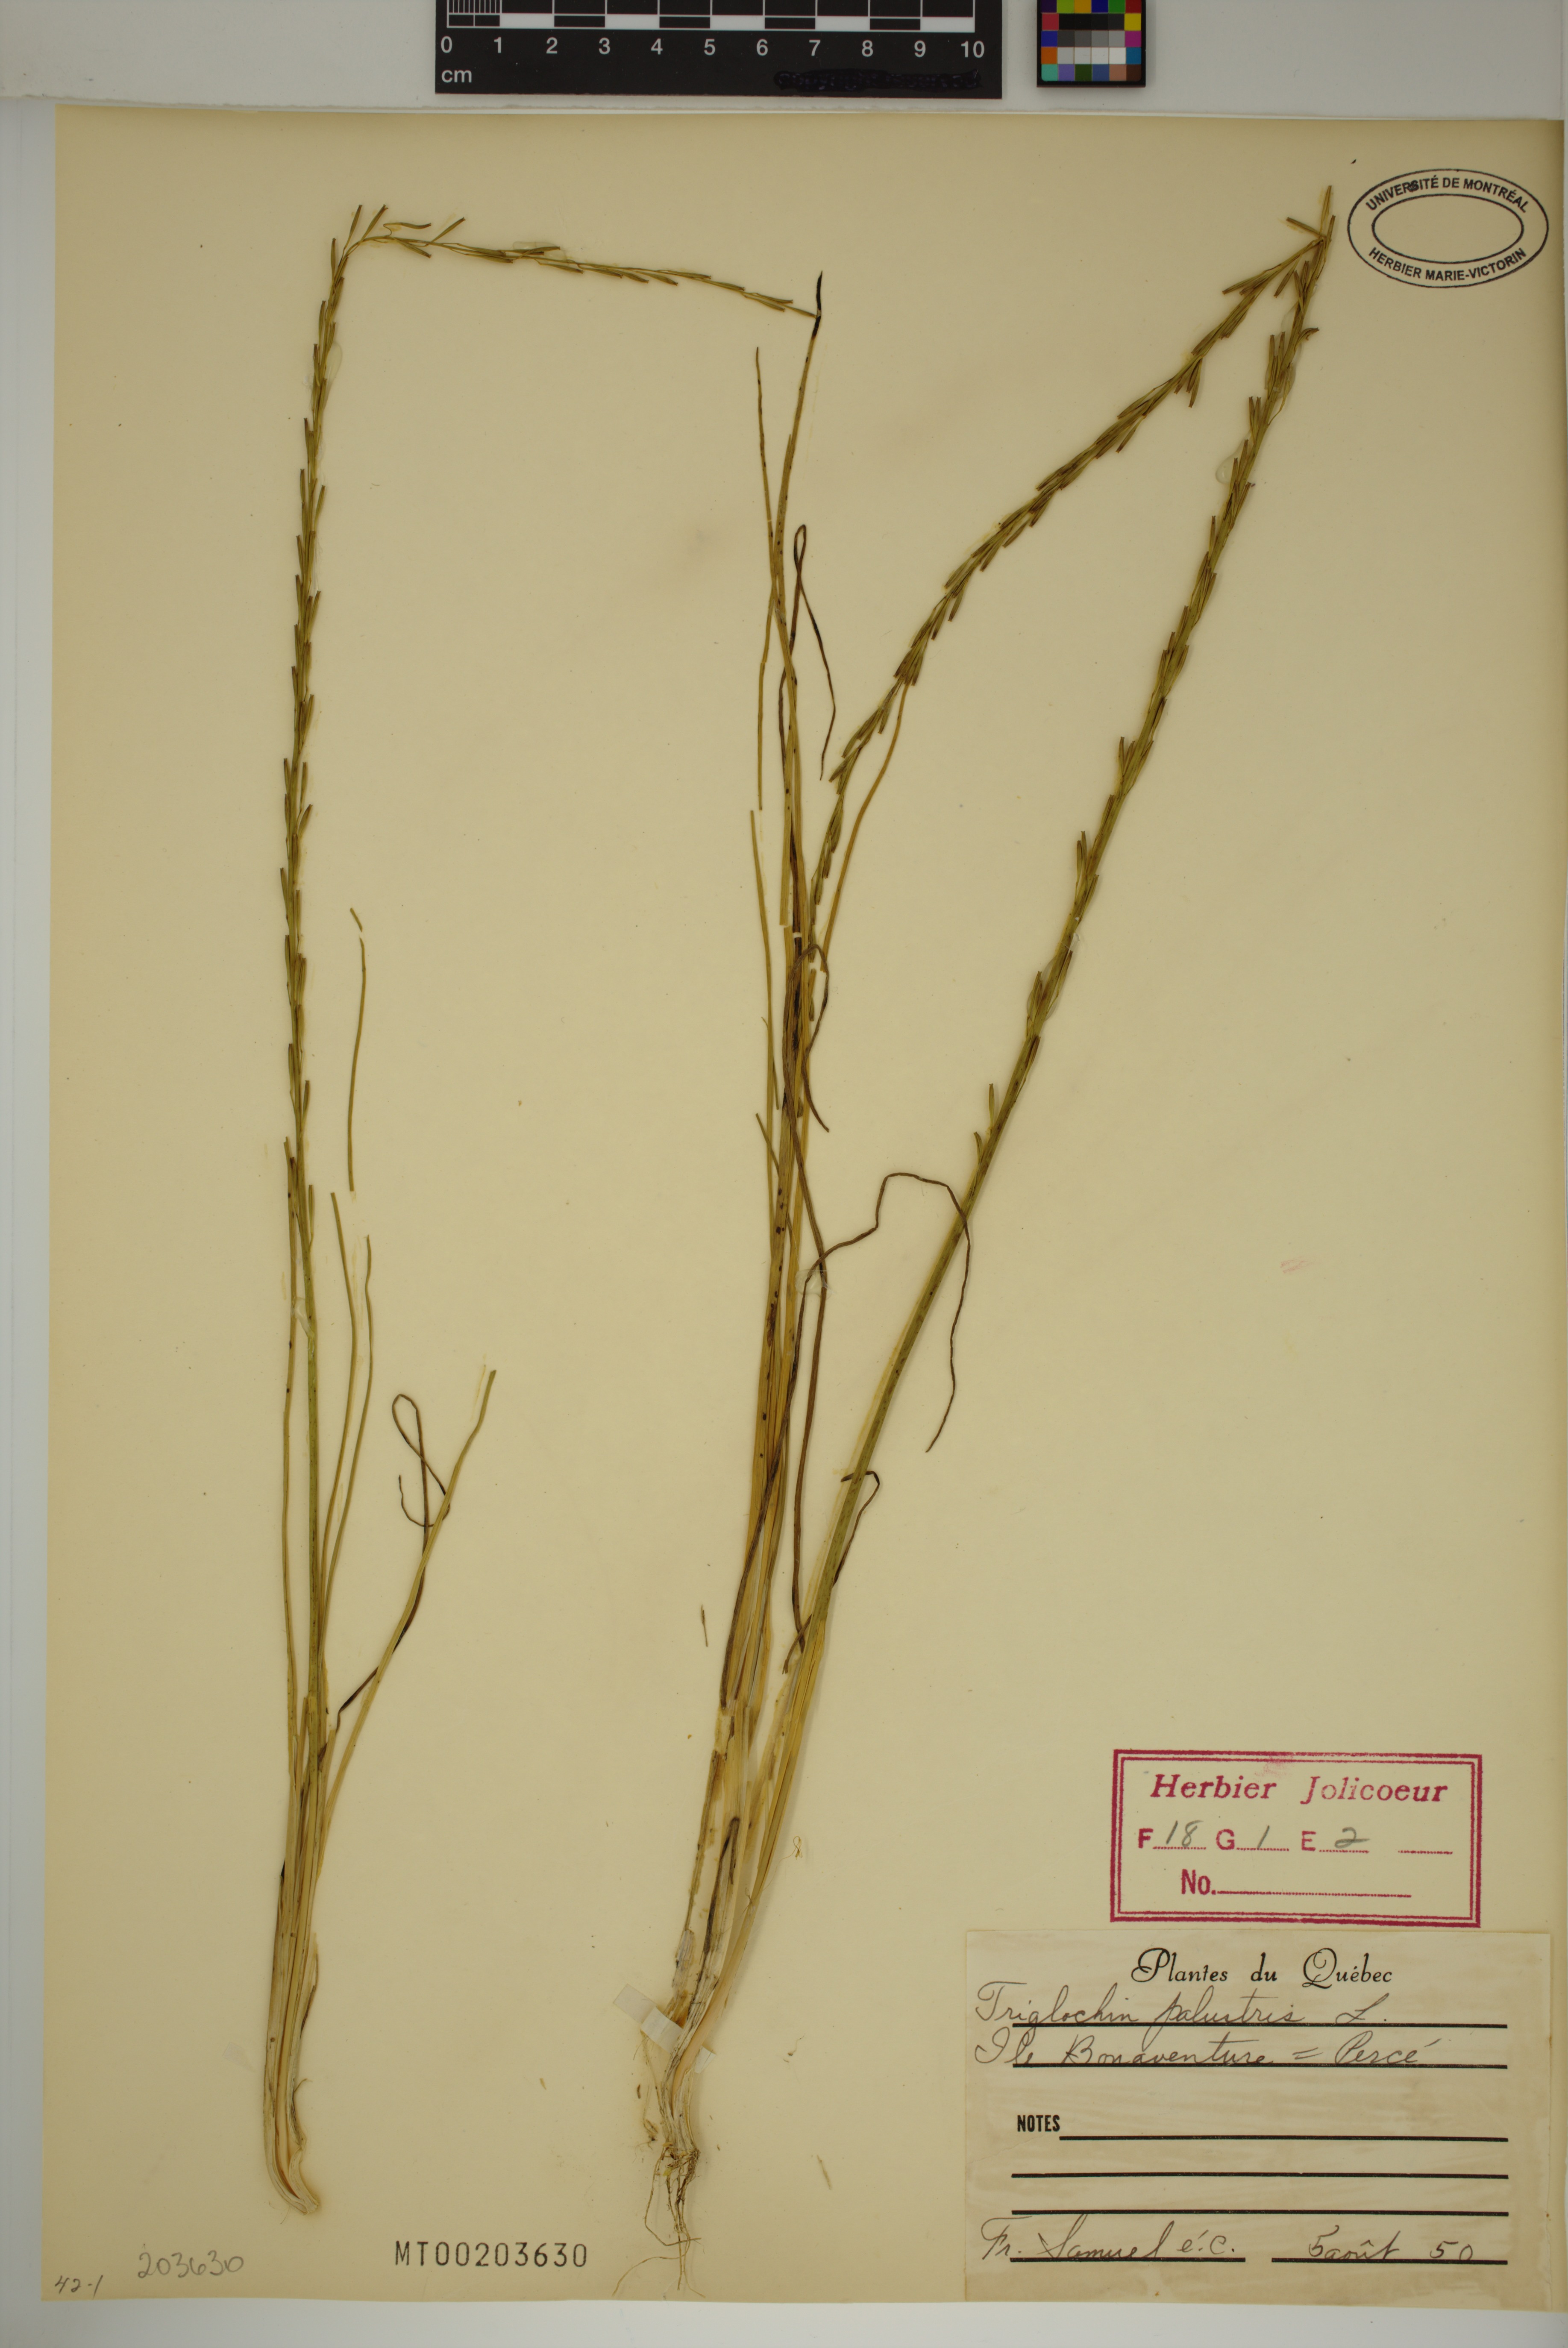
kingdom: Plantae
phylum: Tracheophyta
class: Liliopsida
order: Alismatales
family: Juncaginaceae
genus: Triglochin
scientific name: Triglochin palustris
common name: Marsh arrowgrass
